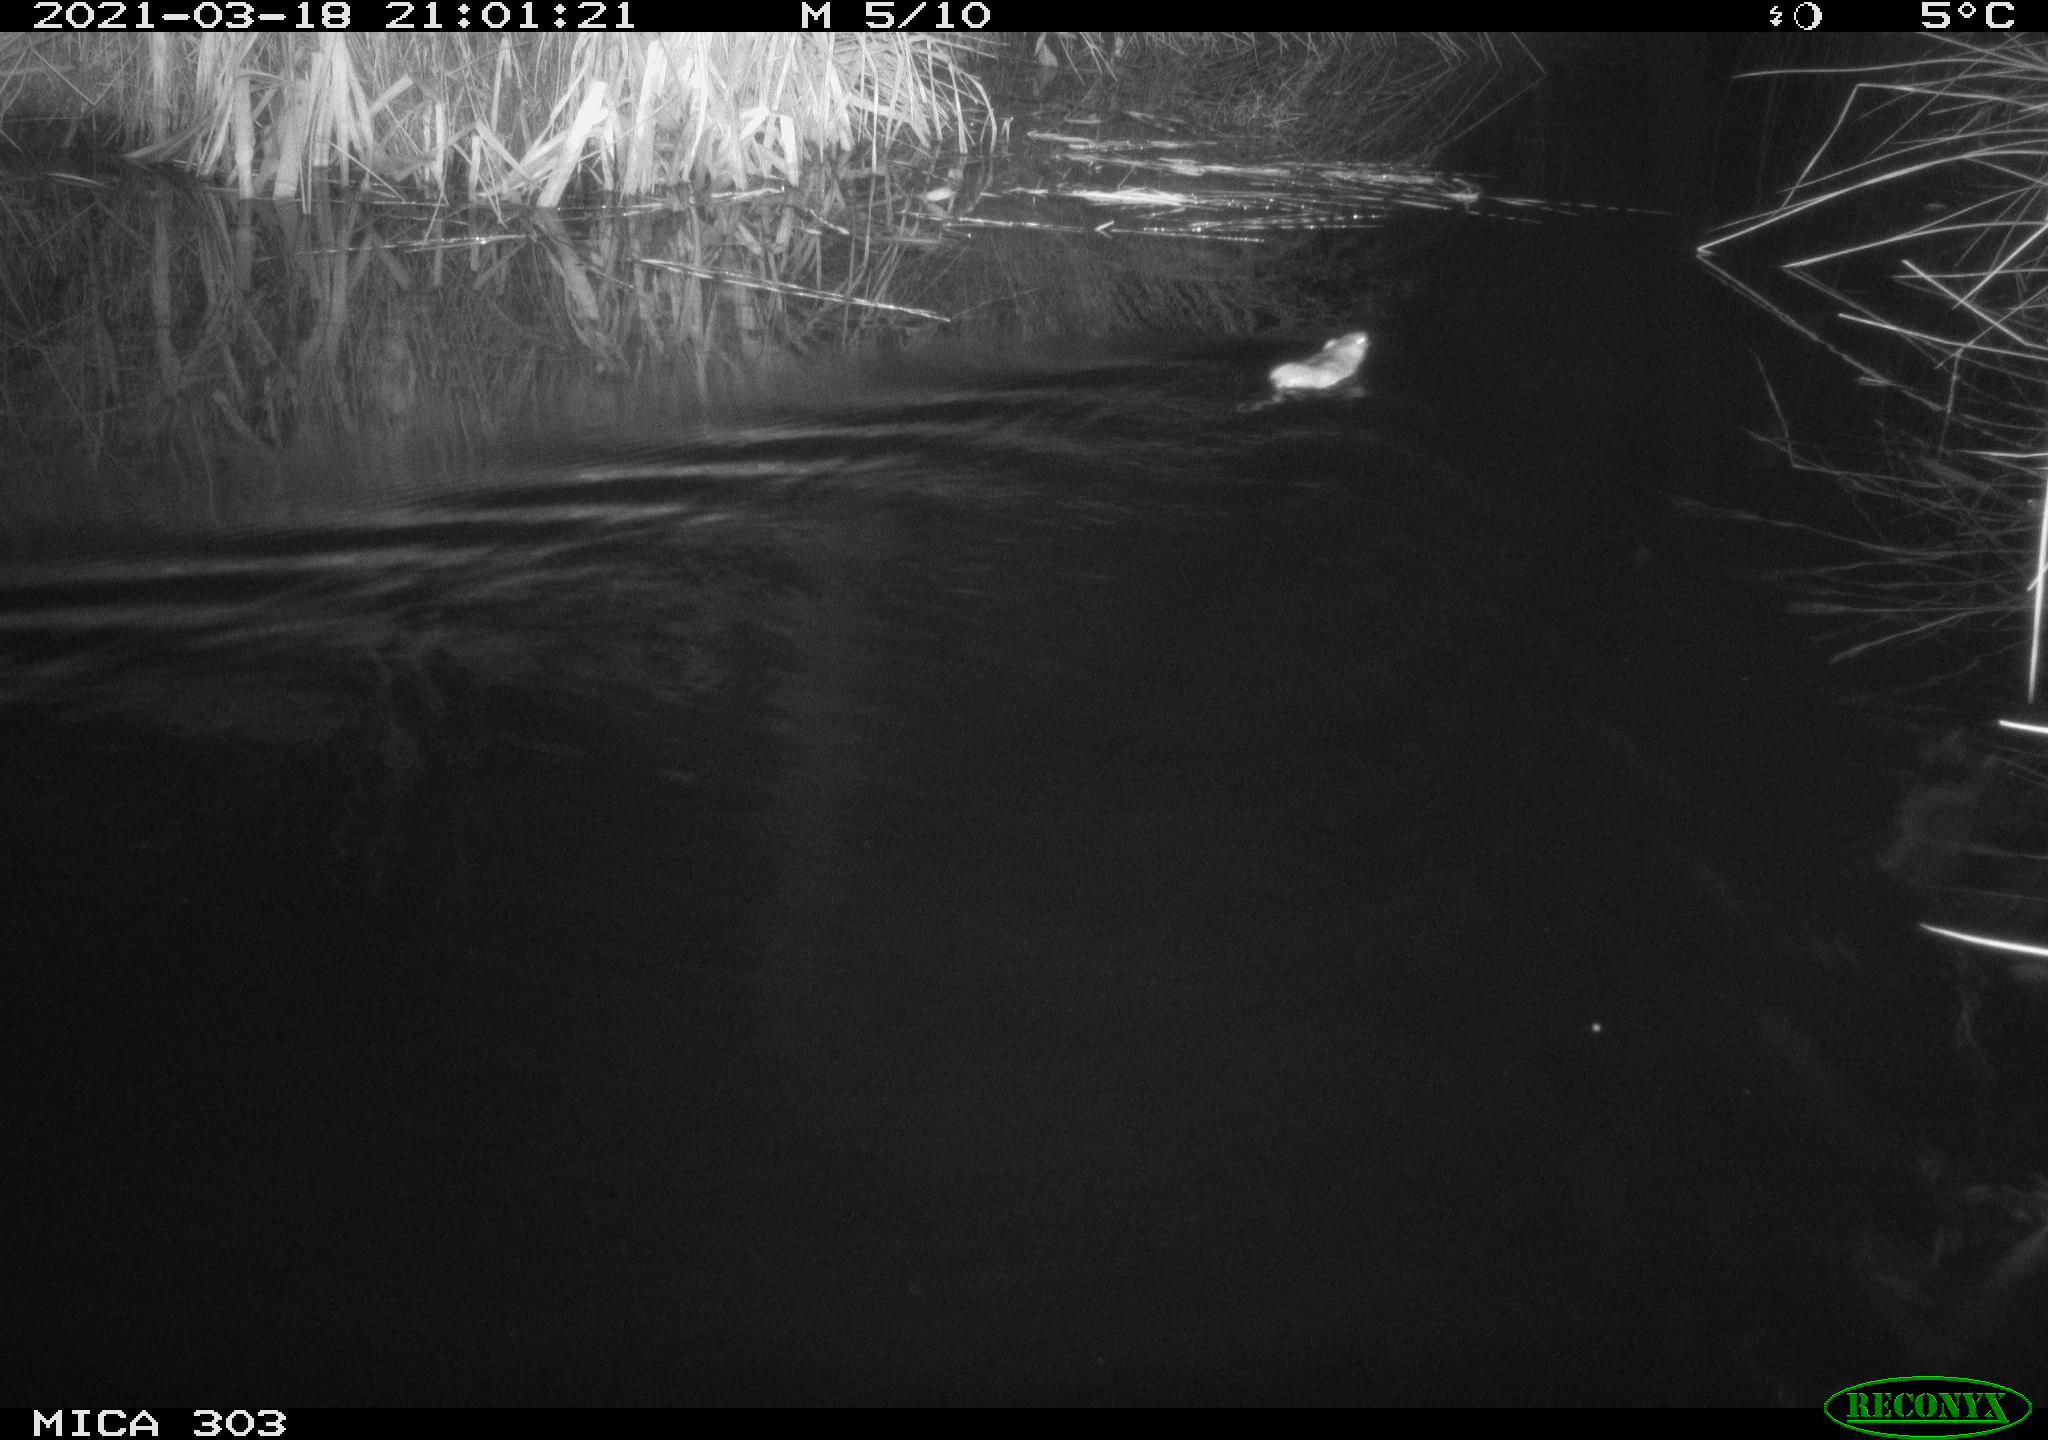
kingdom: Animalia
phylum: Chordata
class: Mammalia
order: Rodentia
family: Muridae
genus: Rattus
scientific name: Rattus norvegicus
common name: Brown rat
